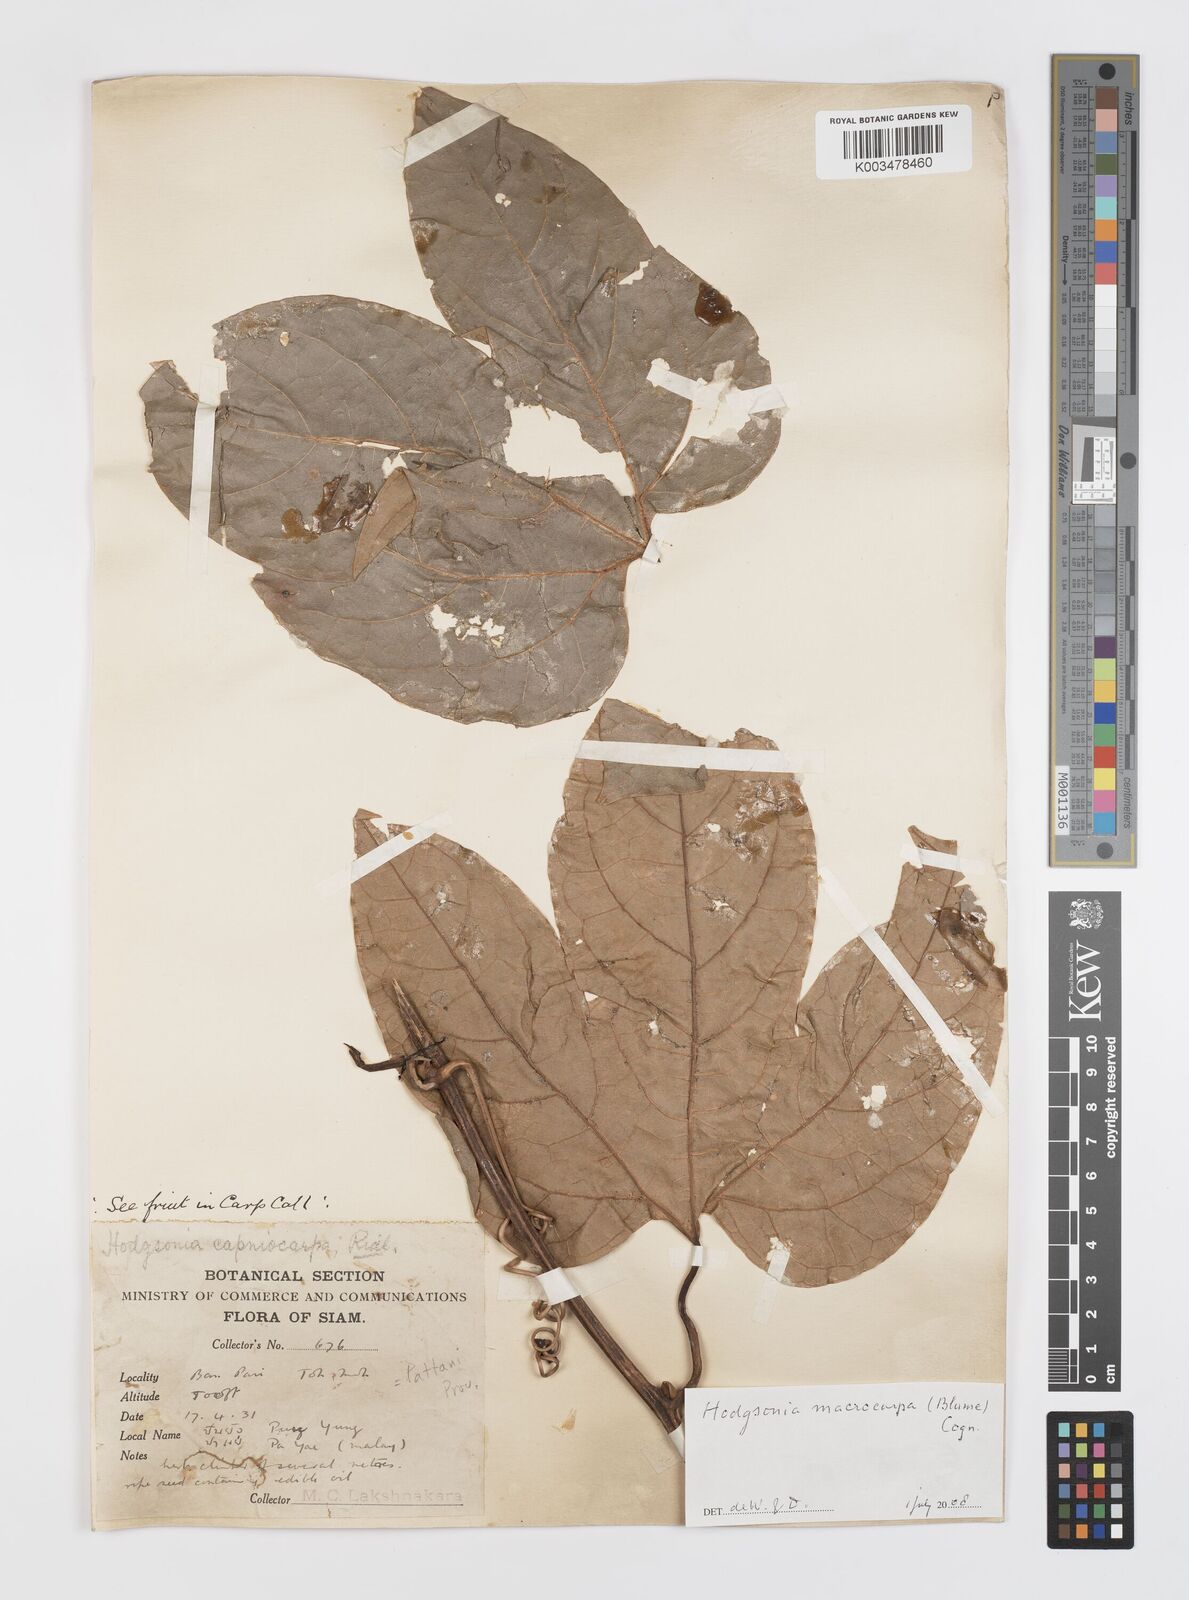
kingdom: Plantae
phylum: Tracheophyta
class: Magnoliopsida
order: Cucurbitales
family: Cucurbitaceae
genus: Hodgsonia
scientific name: Hodgsonia macrocarpa
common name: Chinese lardfruit
